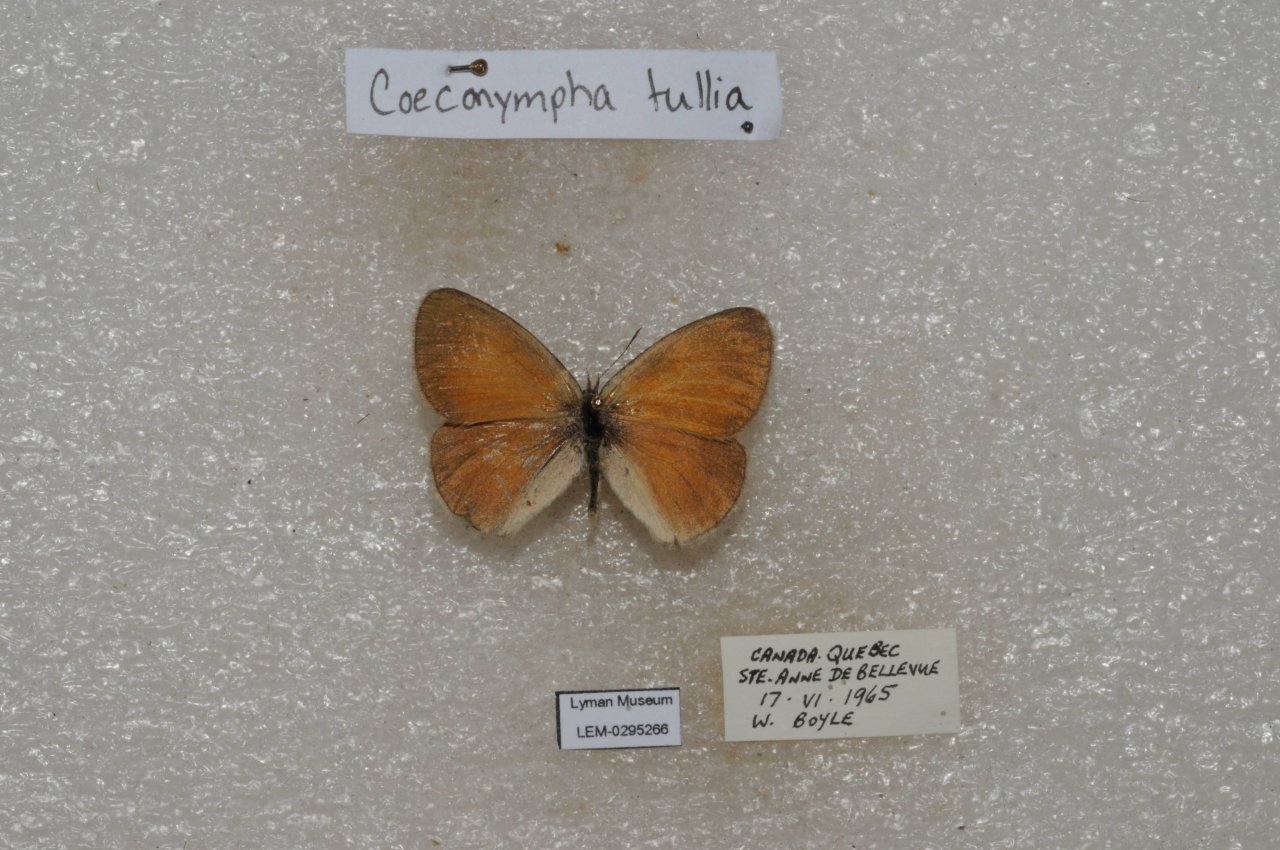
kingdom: Animalia
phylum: Arthropoda
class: Insecta
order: Lepidoptera
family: Nymphalidae
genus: Coenonympha
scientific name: Coenonympha tullia
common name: Large Heath
